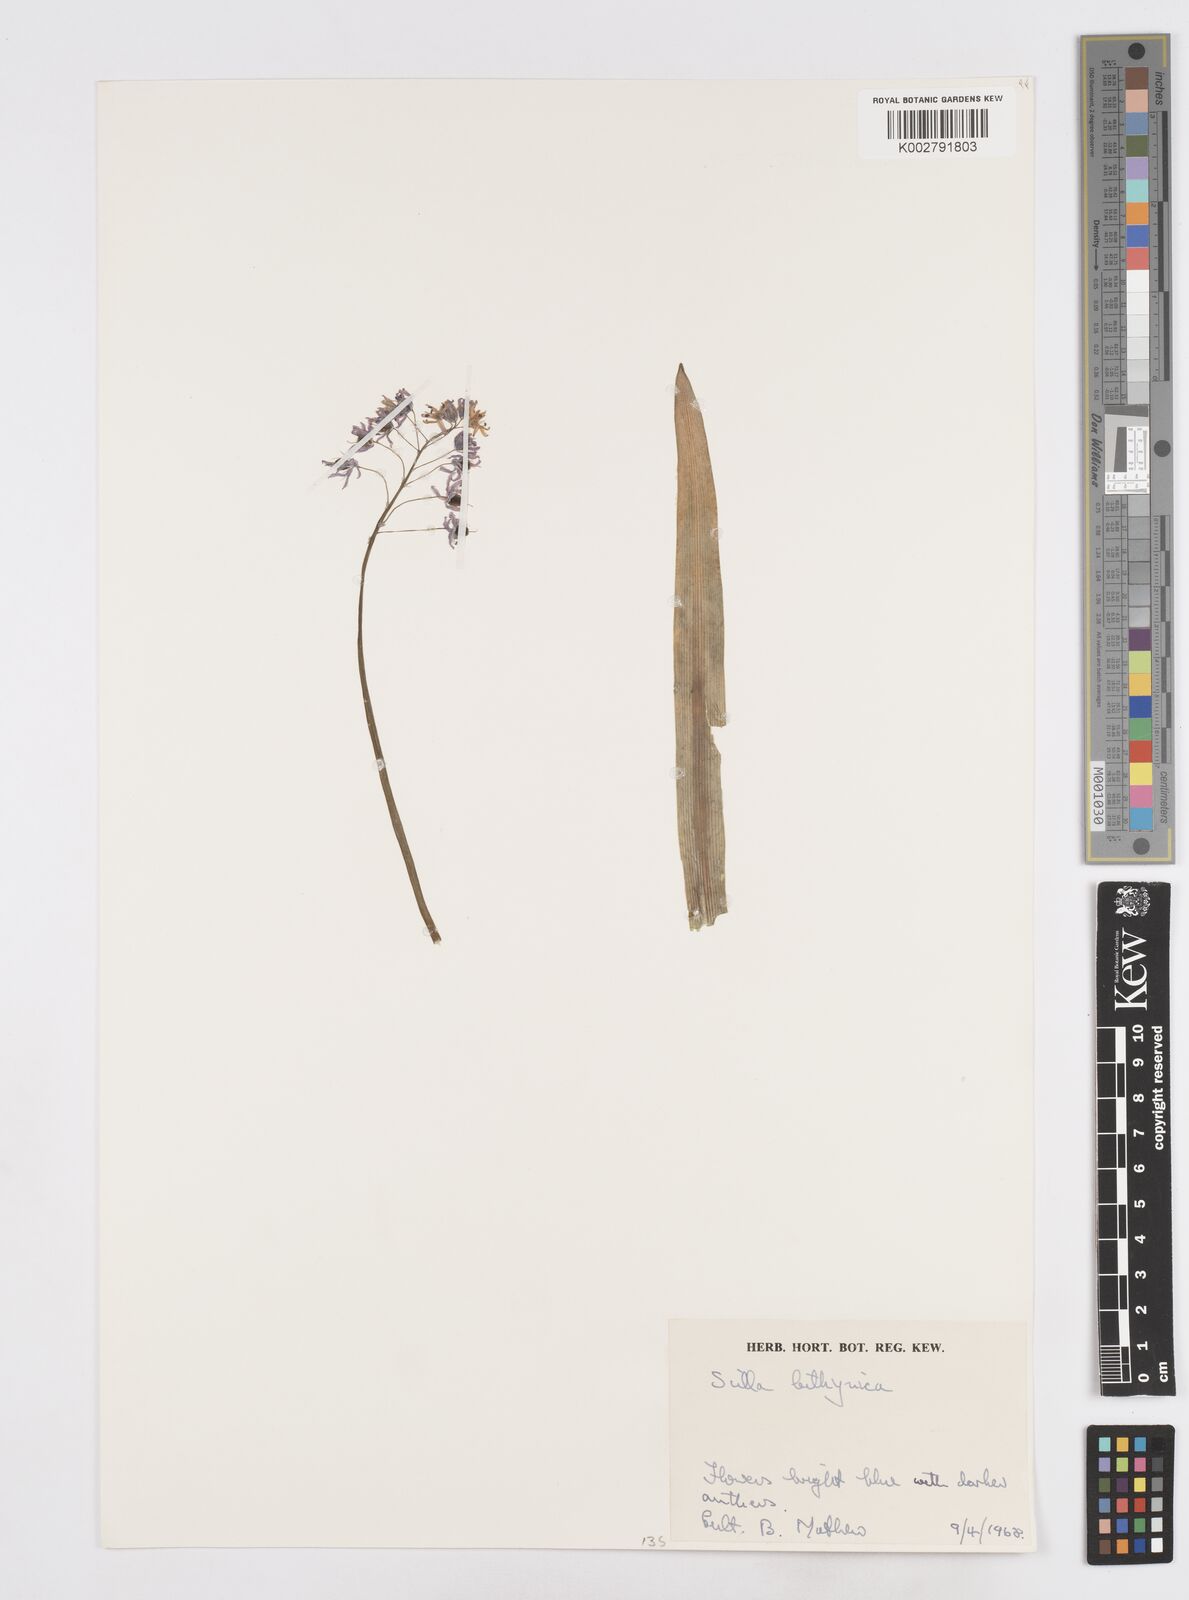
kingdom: Plantae
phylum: Tracheophyta
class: Liliopsida
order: Asparagales
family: Asparagaceae
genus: Scilla
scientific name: Scilla bithynica
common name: Turkish squill
